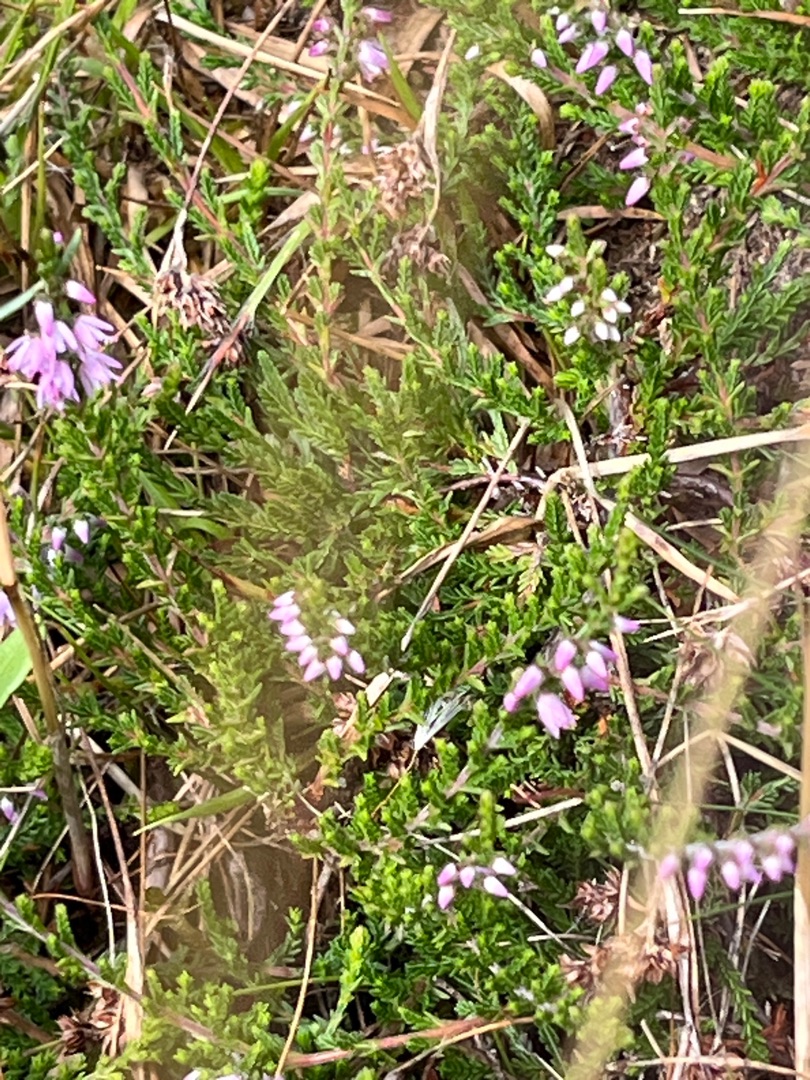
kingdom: Plantae
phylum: Tracheophyta
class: Magnoliopsida
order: Ericales
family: Ericaceae
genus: Calluna
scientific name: Calluna vulgaris
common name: Hedelyng
